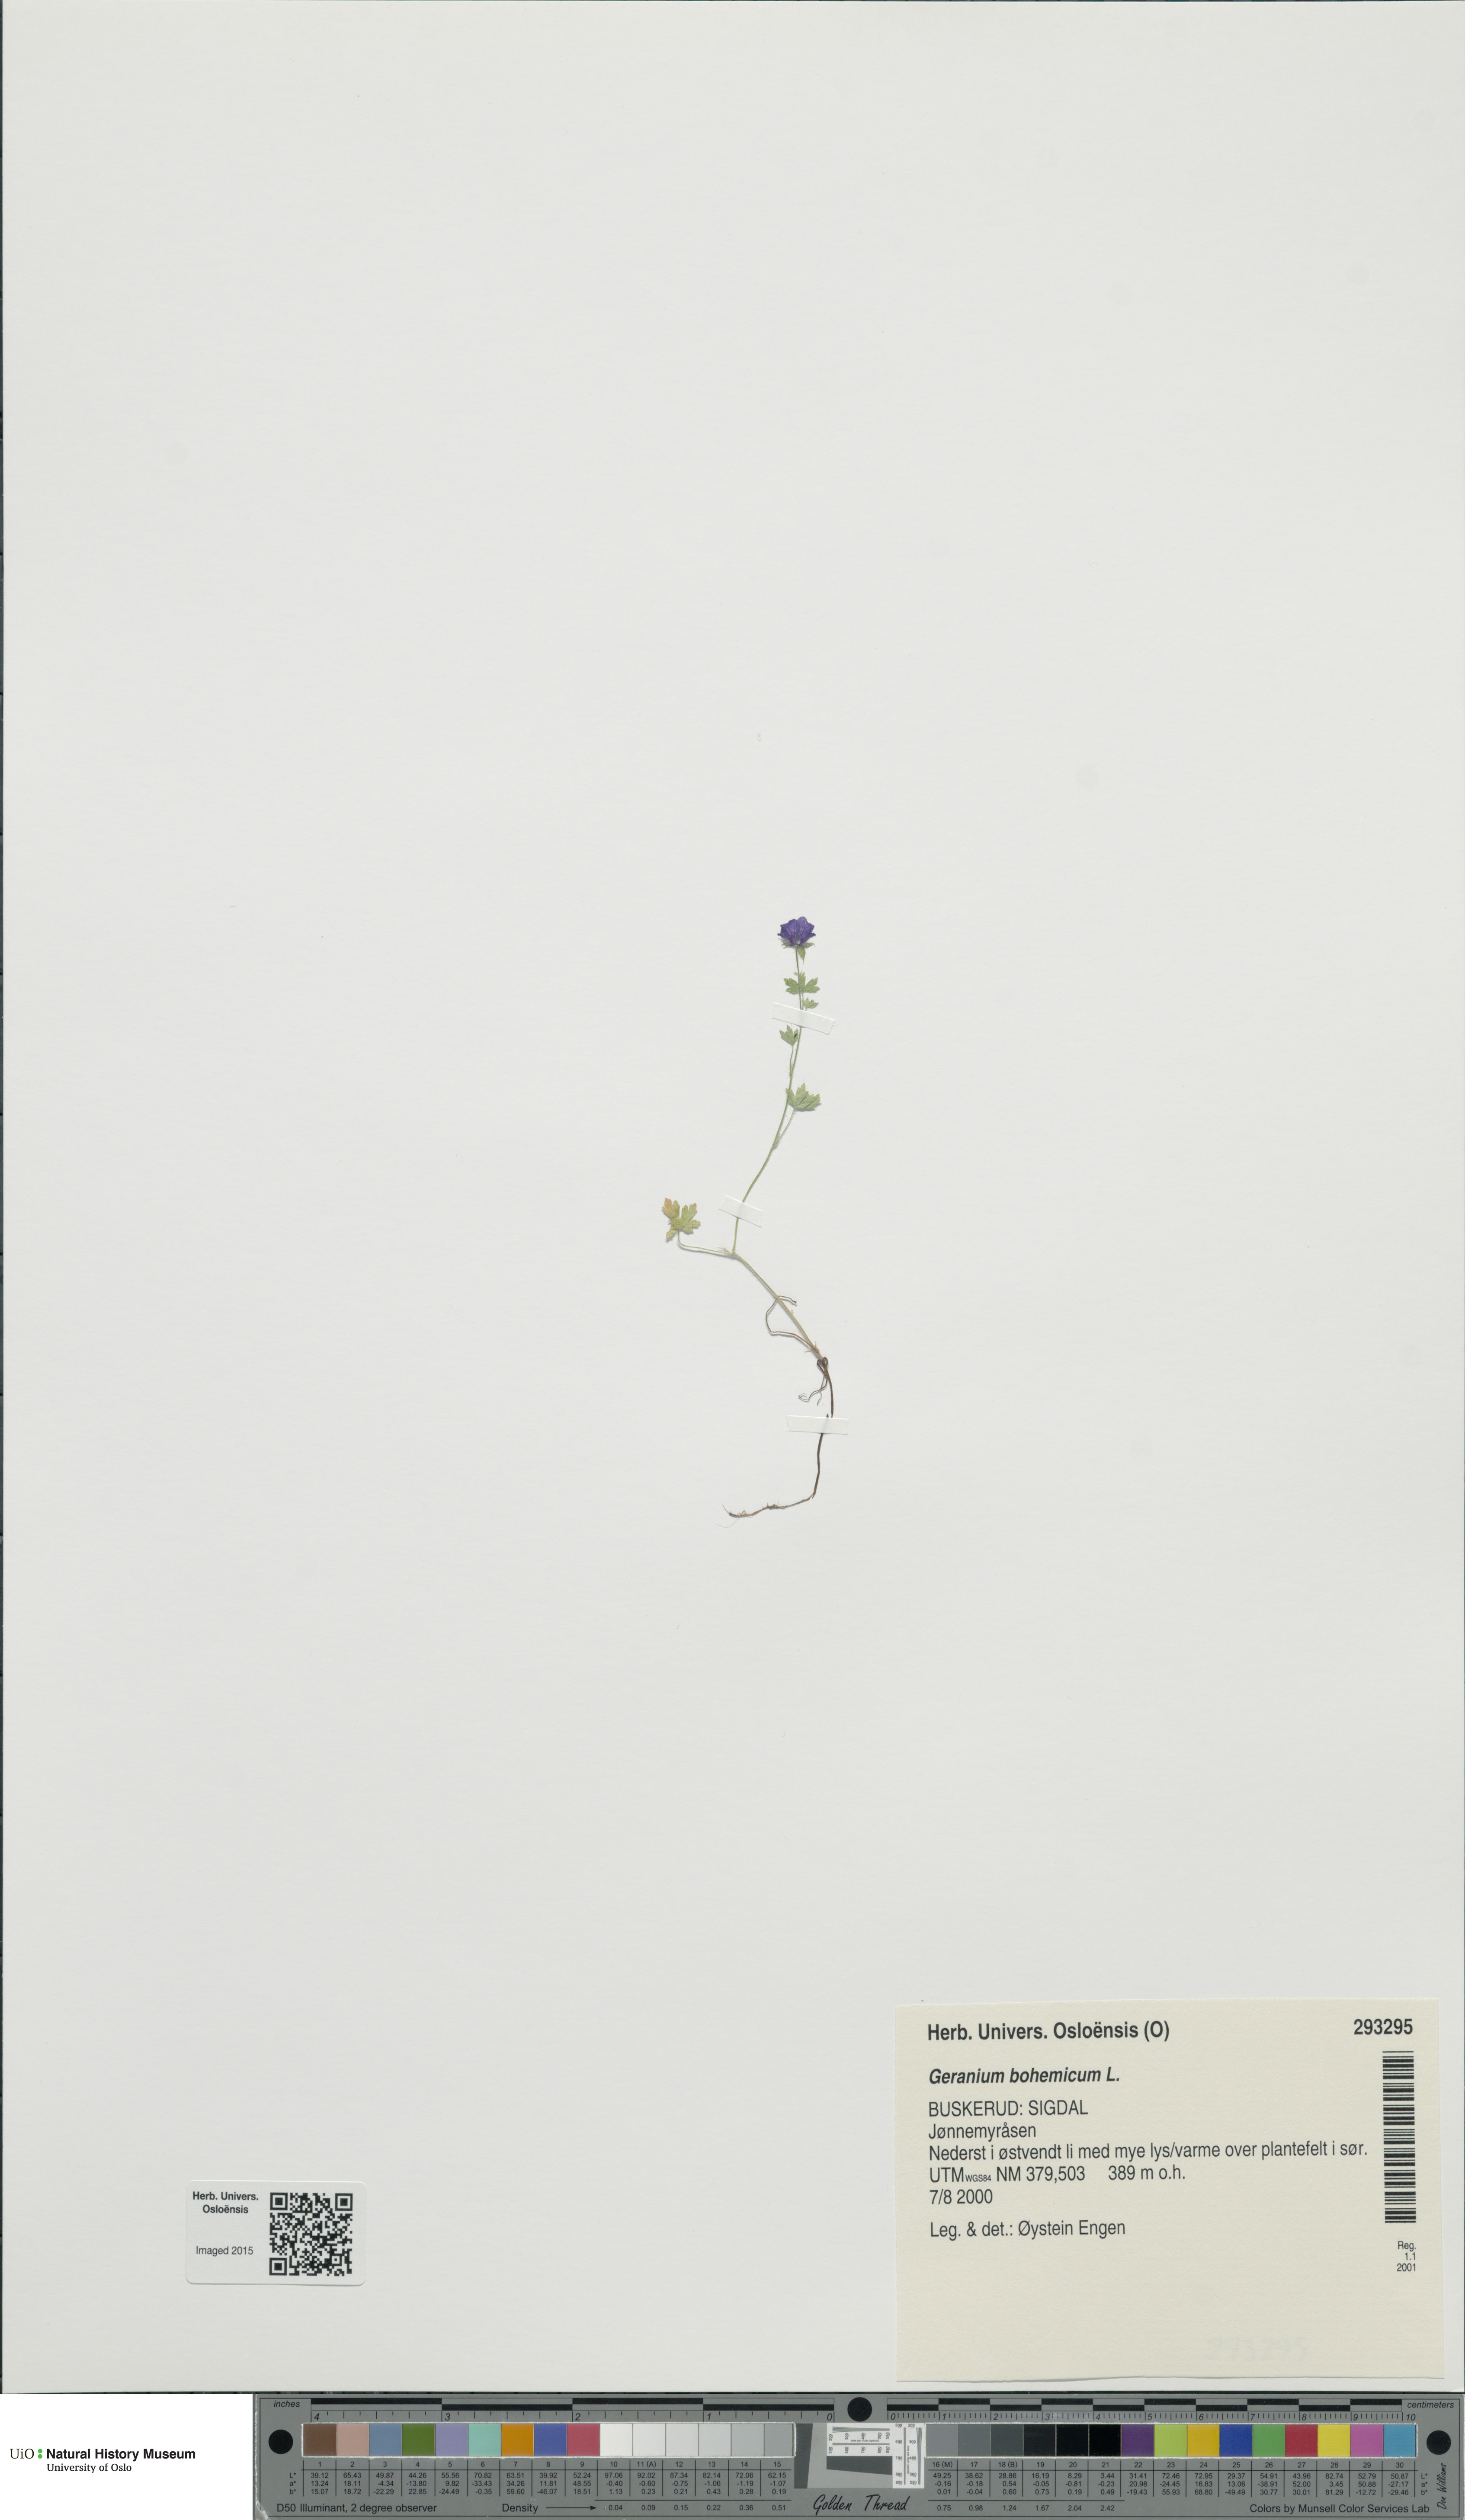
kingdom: Plantae
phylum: Tracheophyta
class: Magnoliopsida
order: Geraniales
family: Geraniaceae
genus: Geranium
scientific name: Geranium bohemicum
